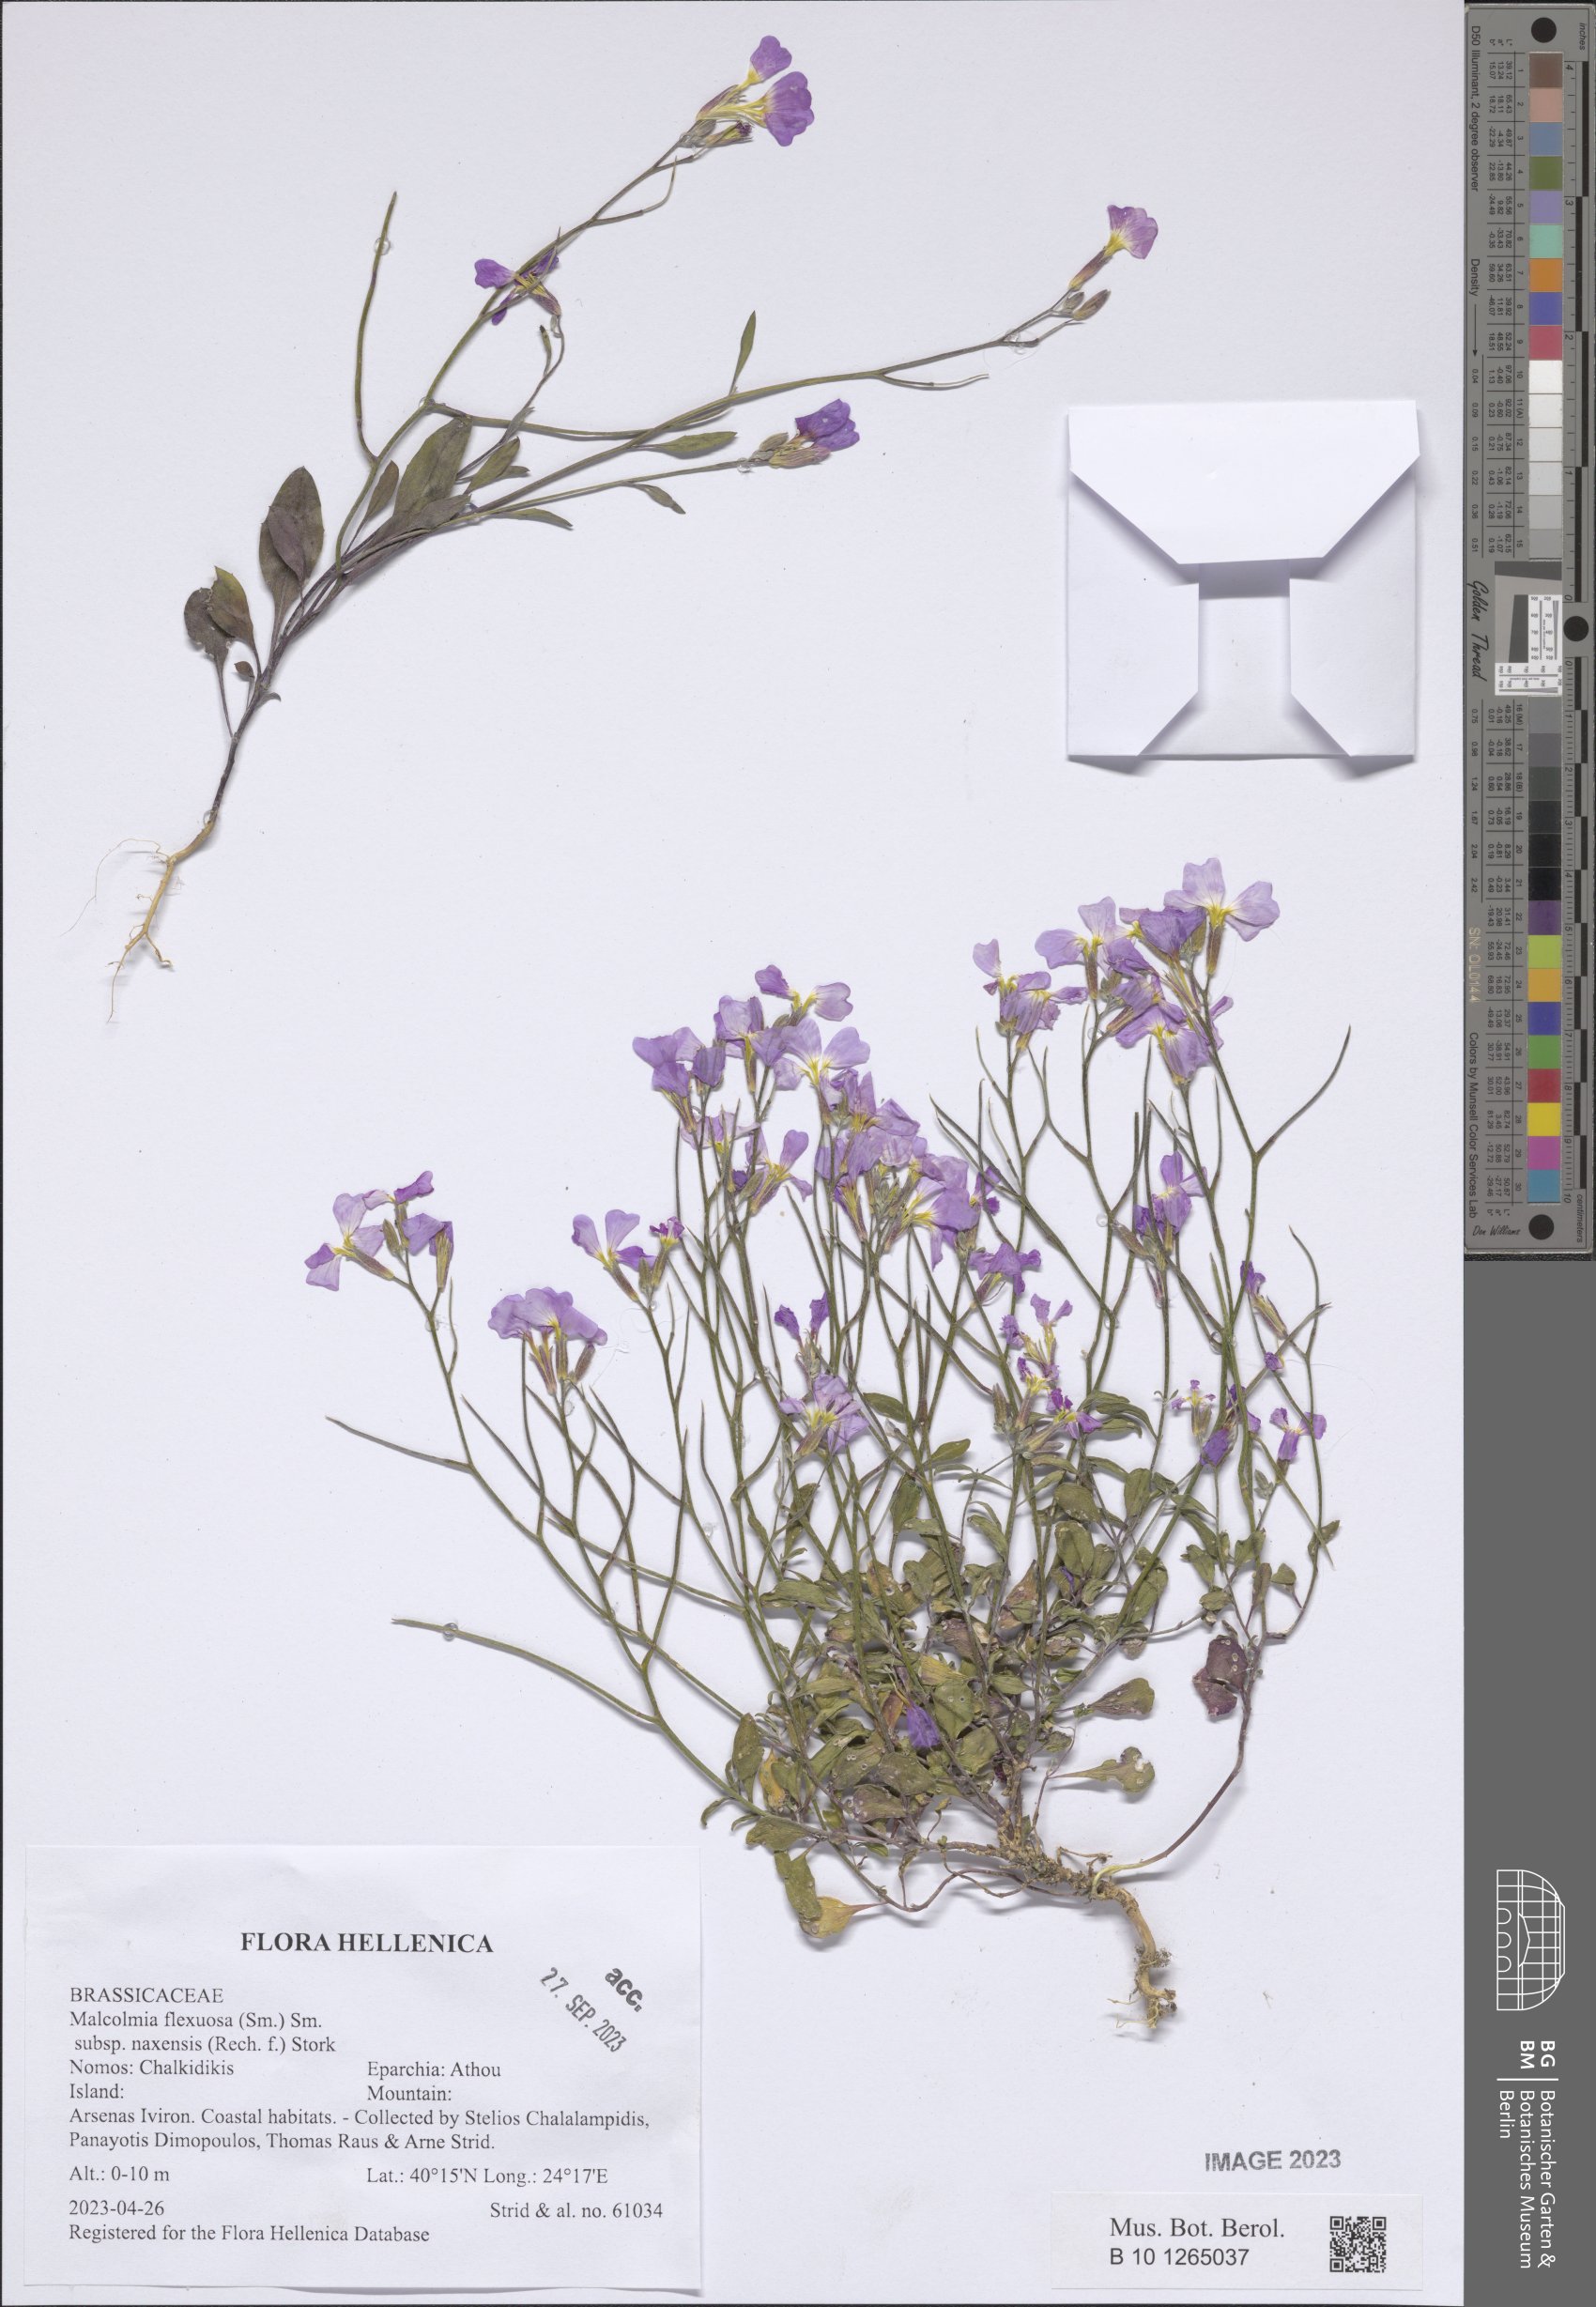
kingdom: Plantae
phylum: Tracheophyta
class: Magnoliopsida
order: Brassicales
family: Brassicaceae
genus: Malcolmia
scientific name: Malcolmia flexuosa
